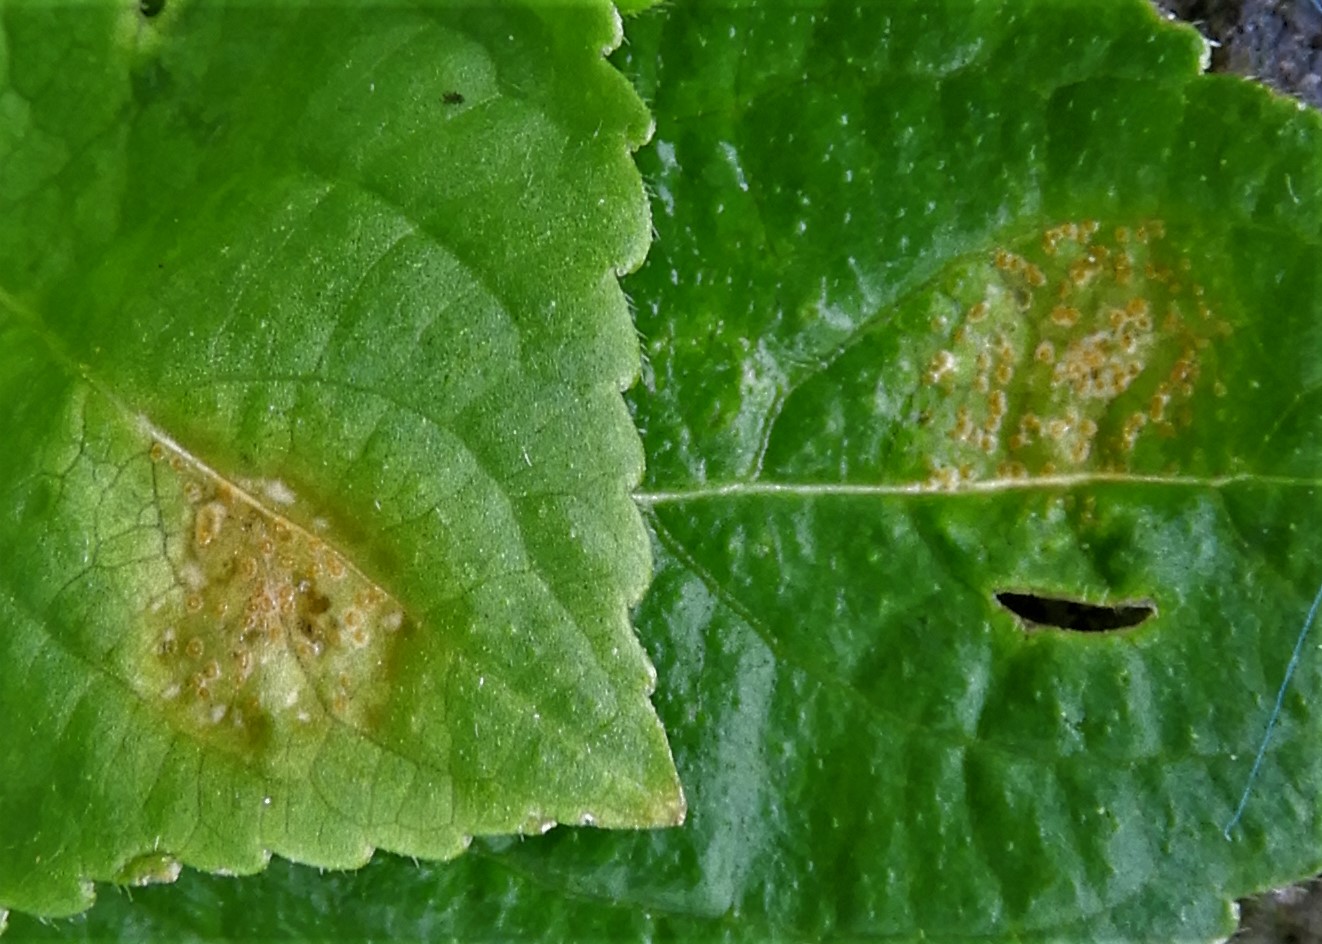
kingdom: Fungi
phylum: Basidiomycota
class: Pucciniomycetes
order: Pucciniales
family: Melampsoraceae
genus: Melampsora
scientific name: Melampsora populnea
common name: poppel-skorperust
